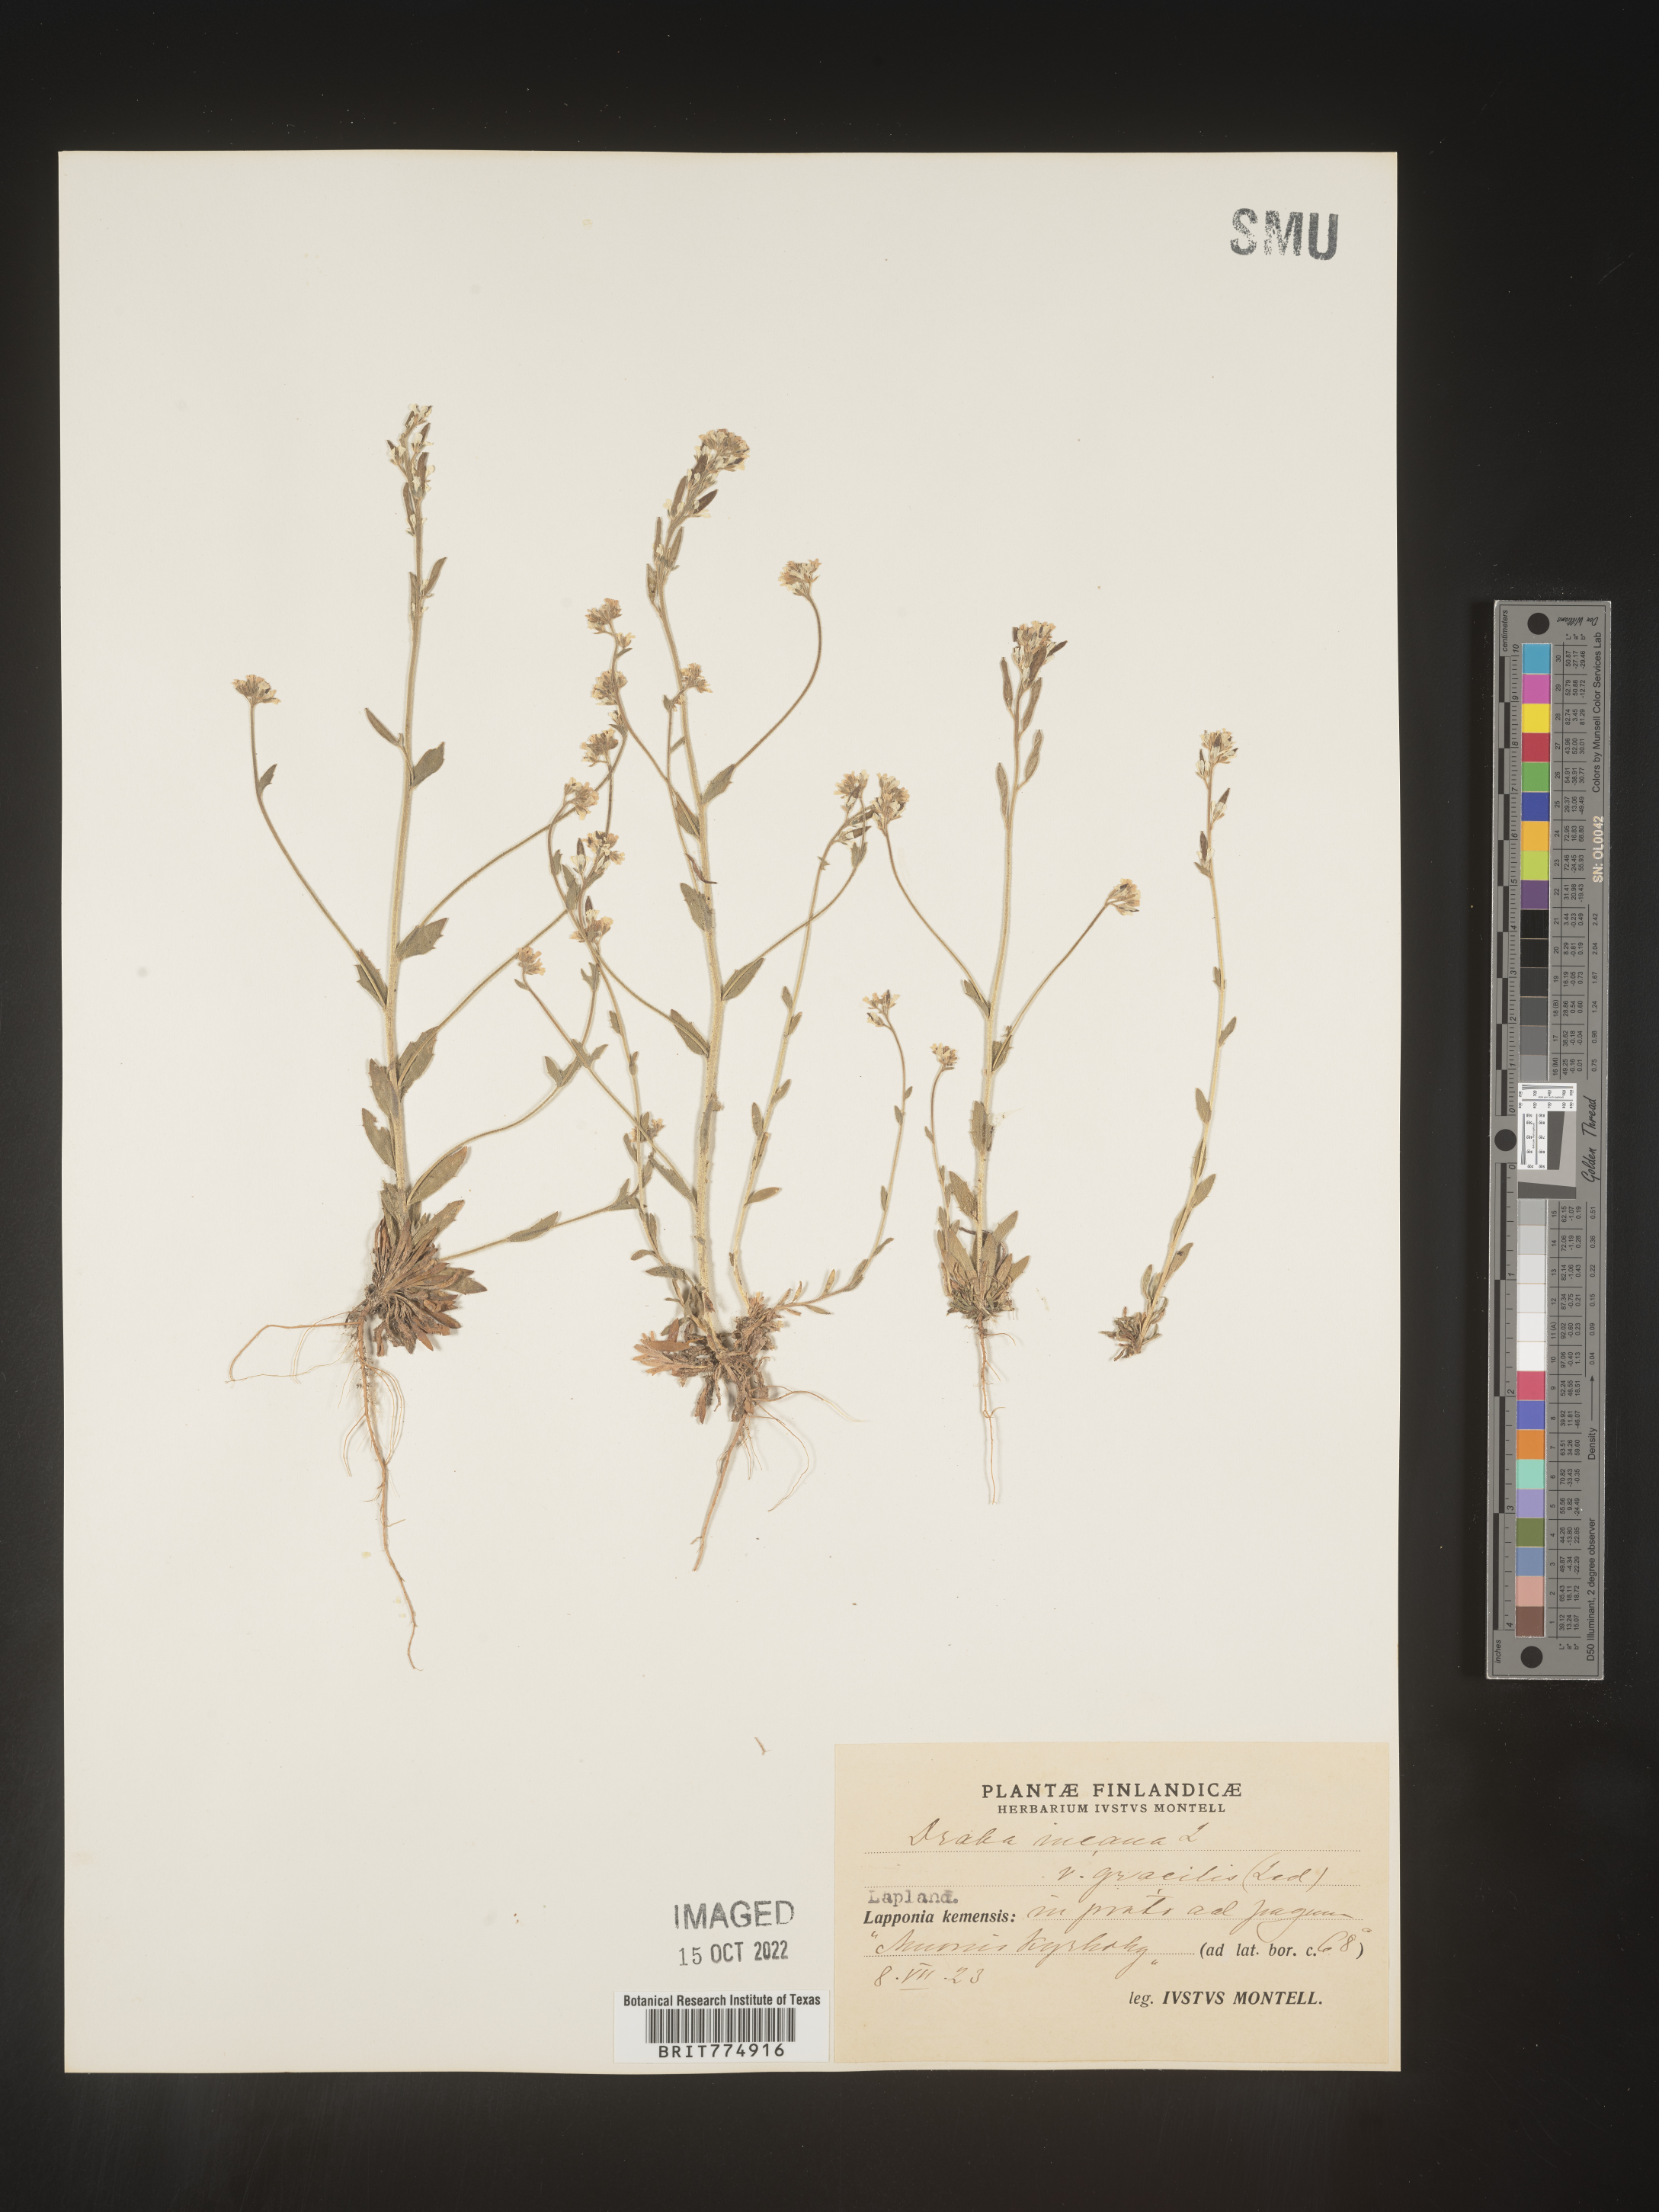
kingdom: Plantae
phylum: Tracheophyta
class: Magnoliopsida
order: Brassicales
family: Brassicaceae
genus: Draba
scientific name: Draba
